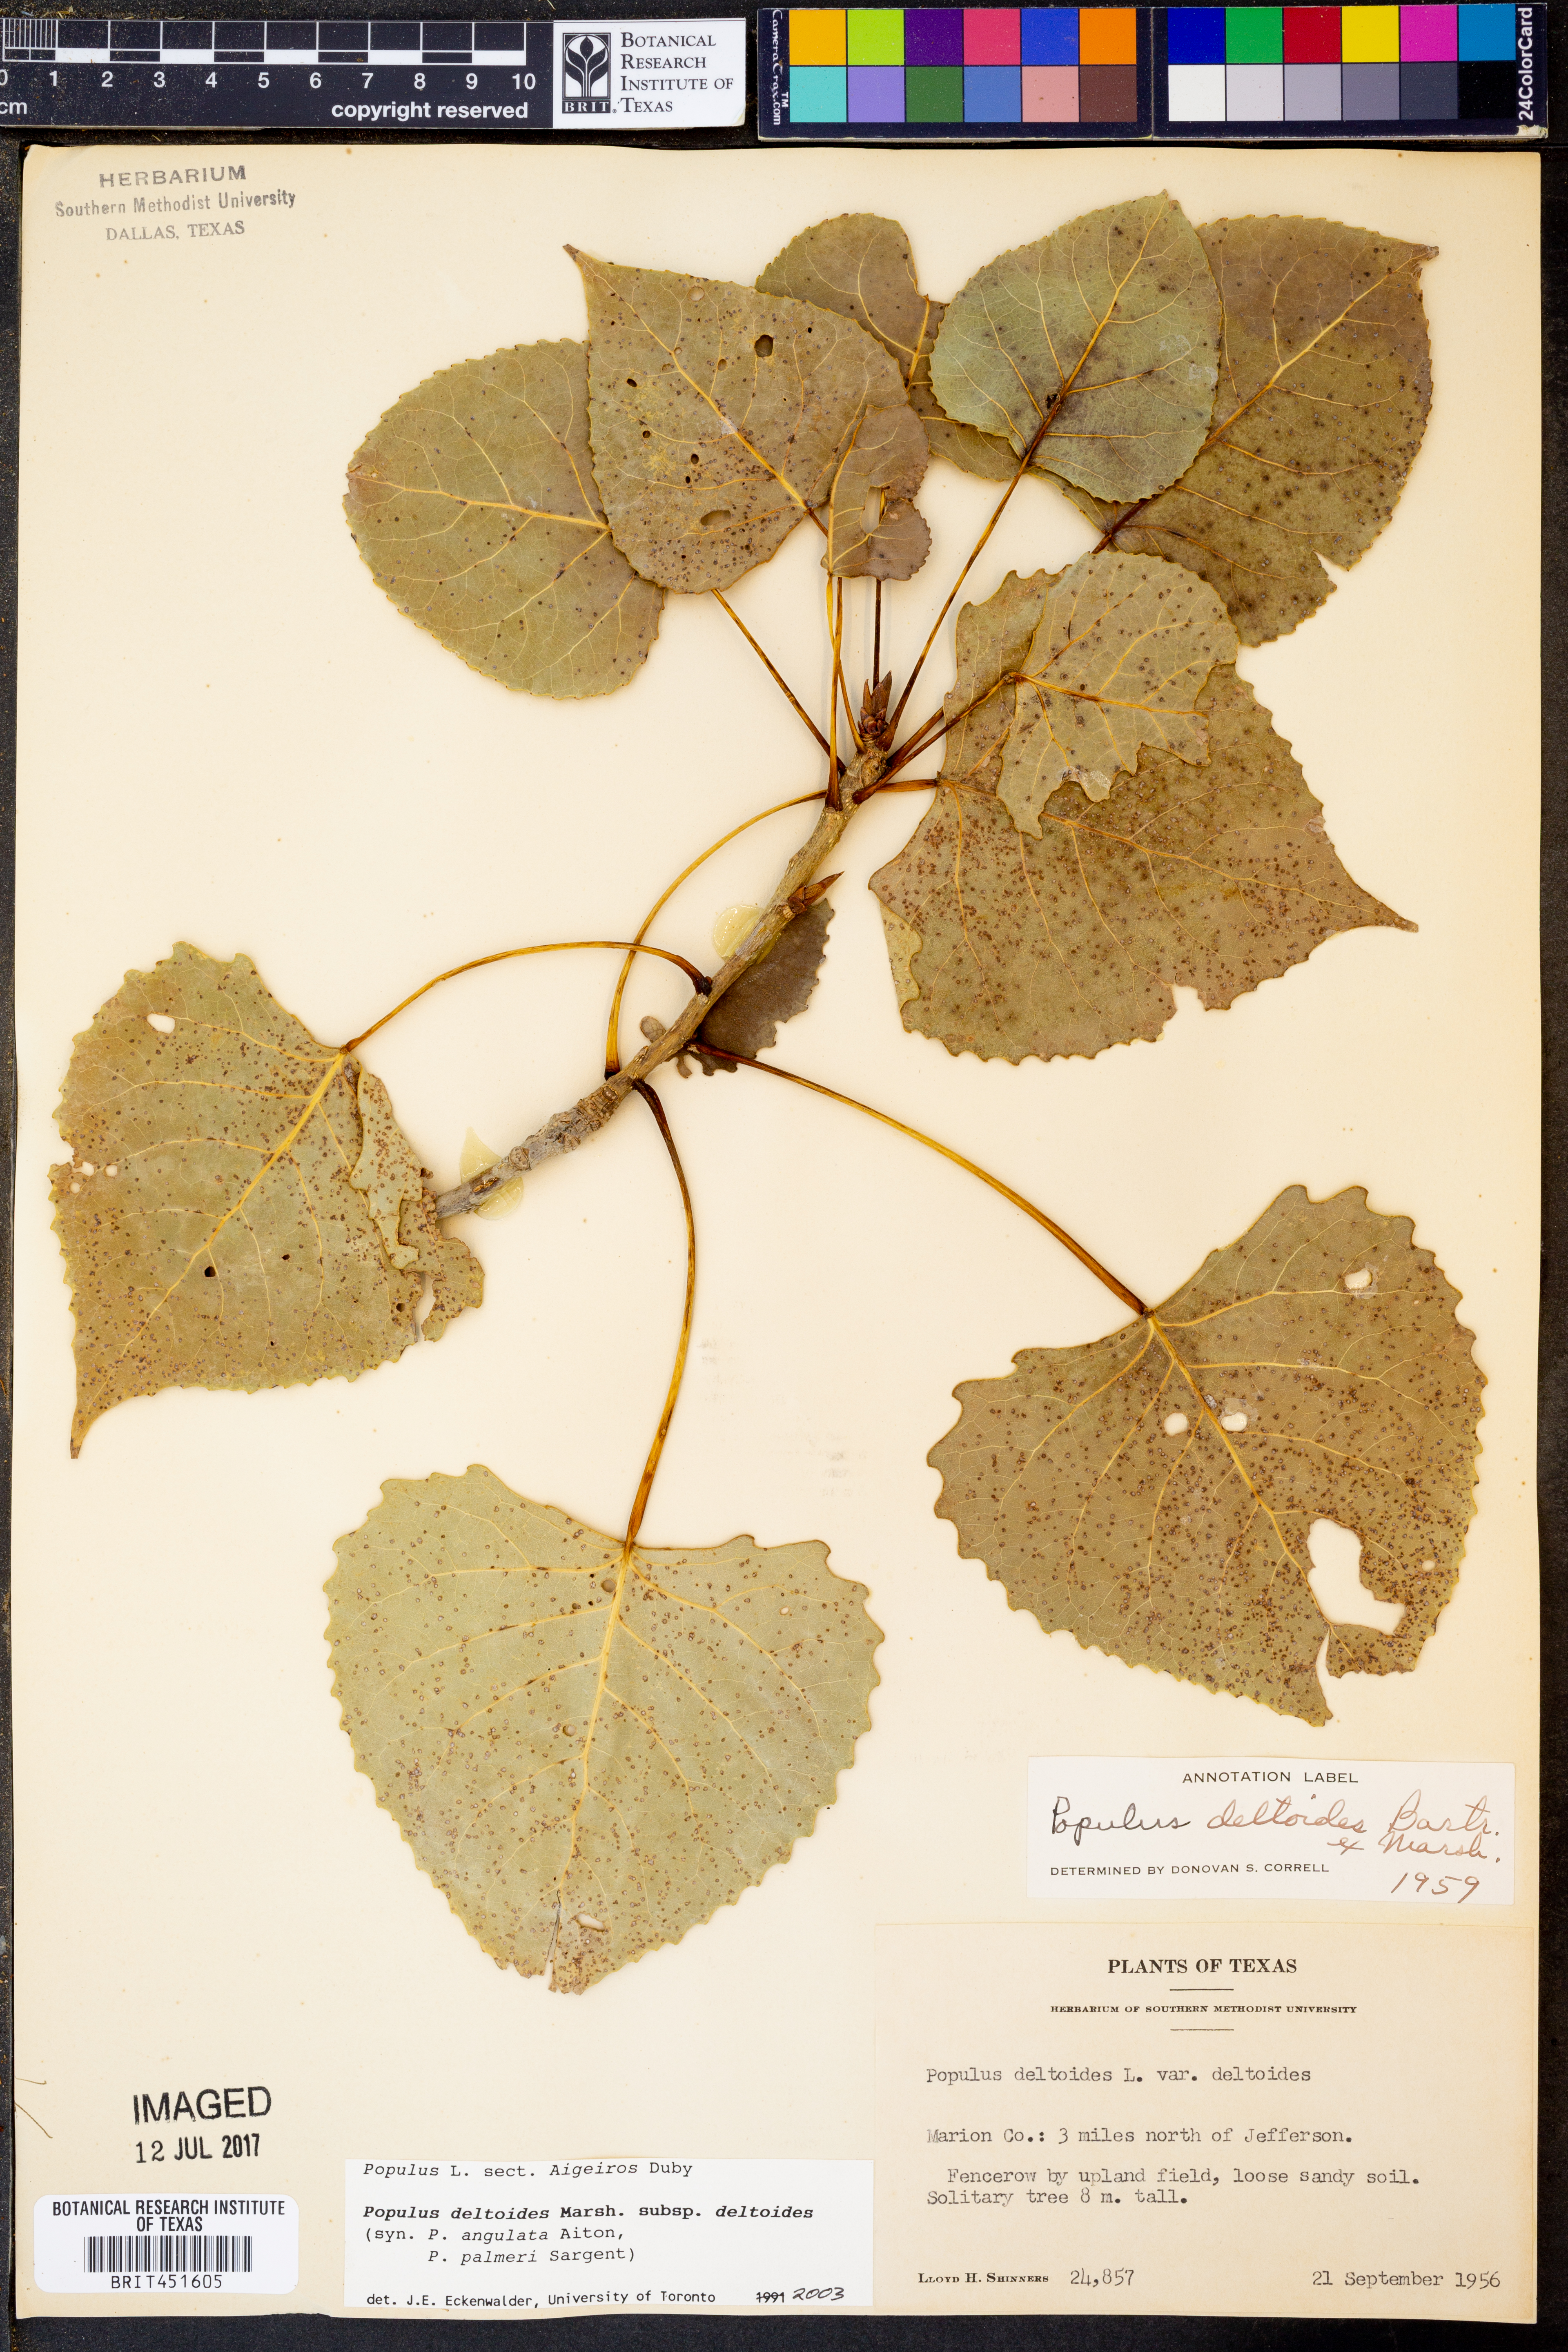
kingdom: Plantae
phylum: Tracheophyta
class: Magnoliopsida
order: Malpighiales
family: Salicaceae
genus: Populus
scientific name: Populus deltoides
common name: Eastern cottonwood
